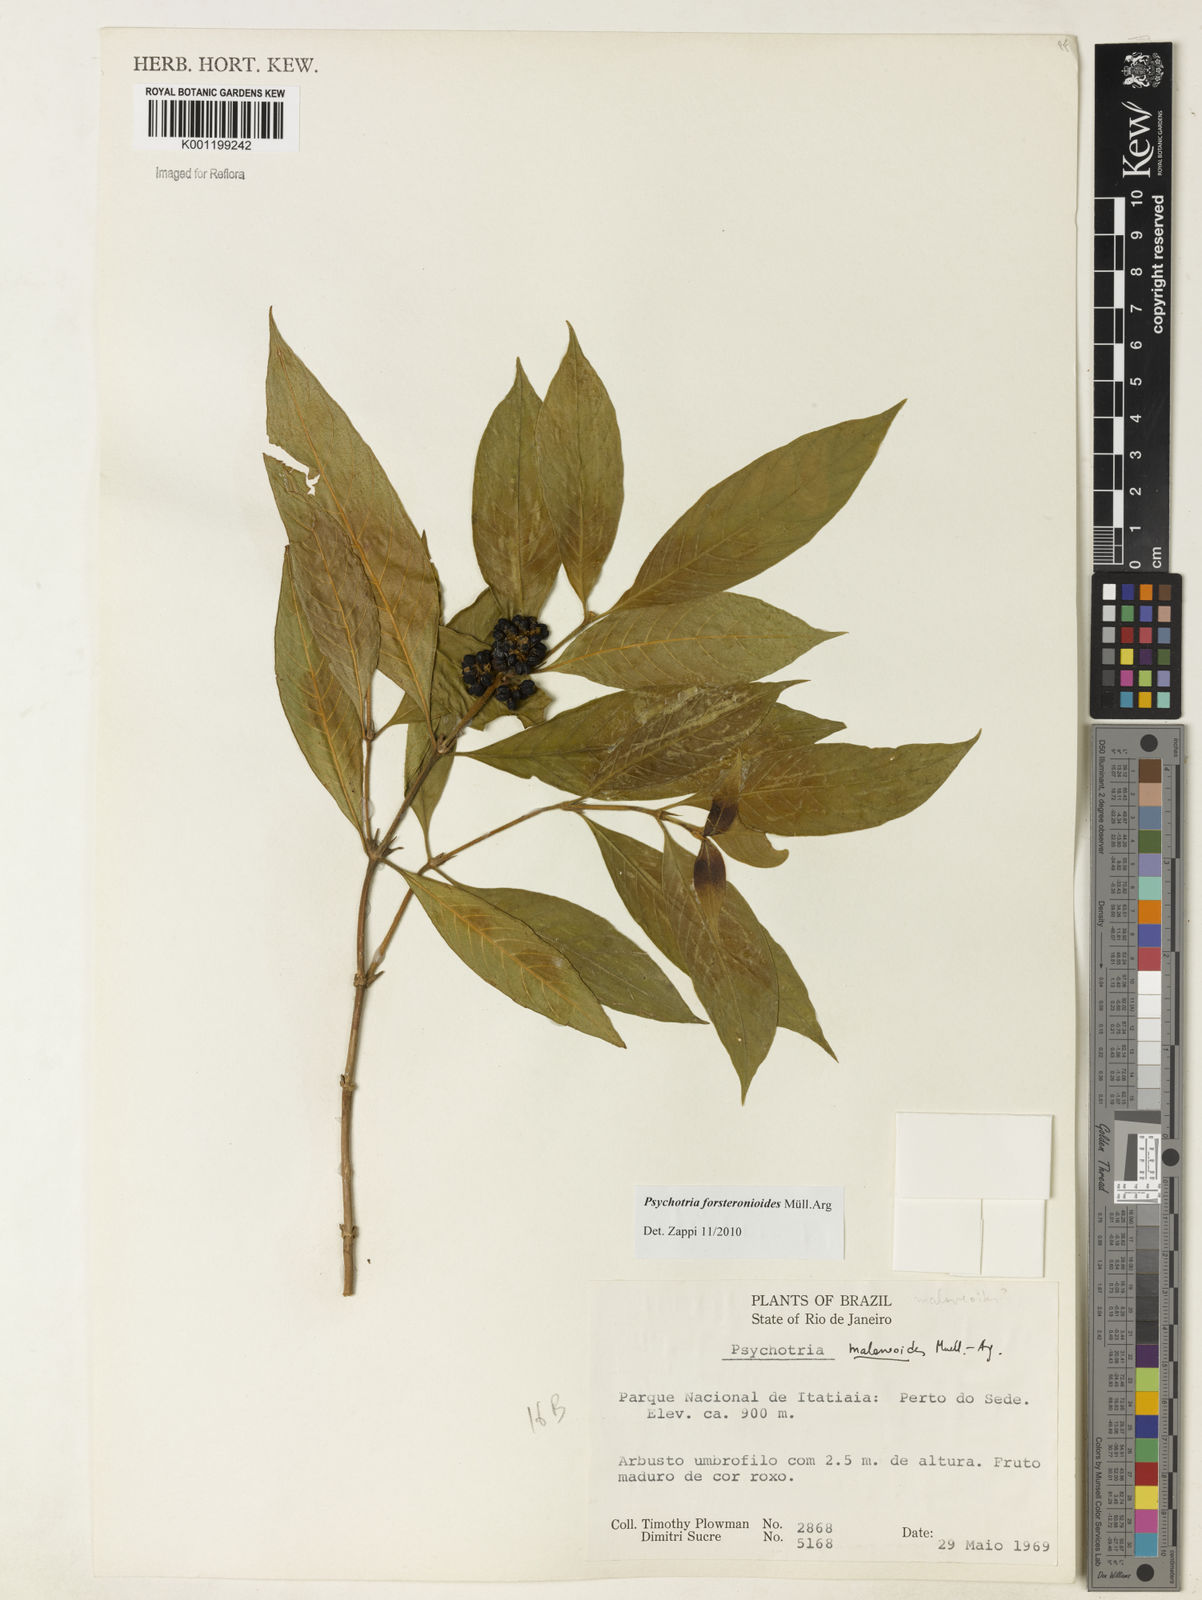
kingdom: Plantae
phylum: Tracheophyta
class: Magnoliopsida
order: Gentianales
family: Rubiaceae
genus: Psychotria
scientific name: Psychotria
